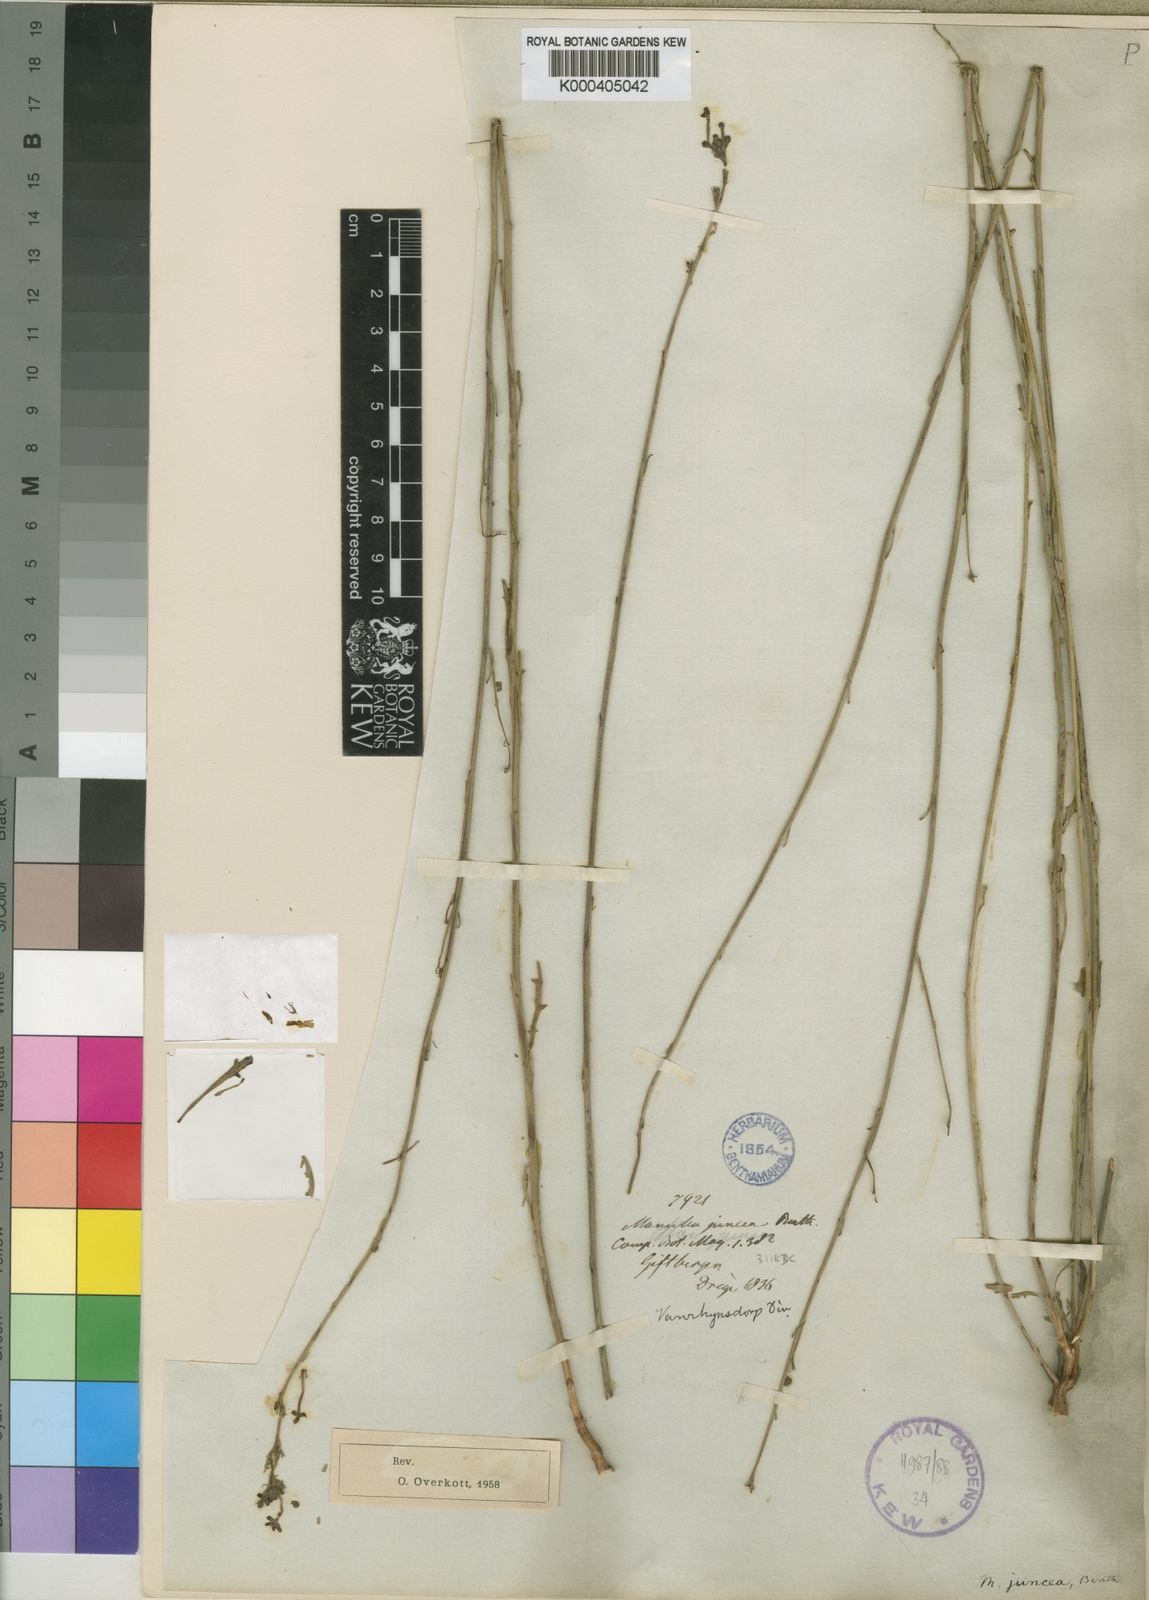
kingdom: Plantae
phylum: Tracheophyta
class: Magnoliopsida
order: Lamiales
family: Scrophulariaceae
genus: Manulea
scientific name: Manulea juncea
